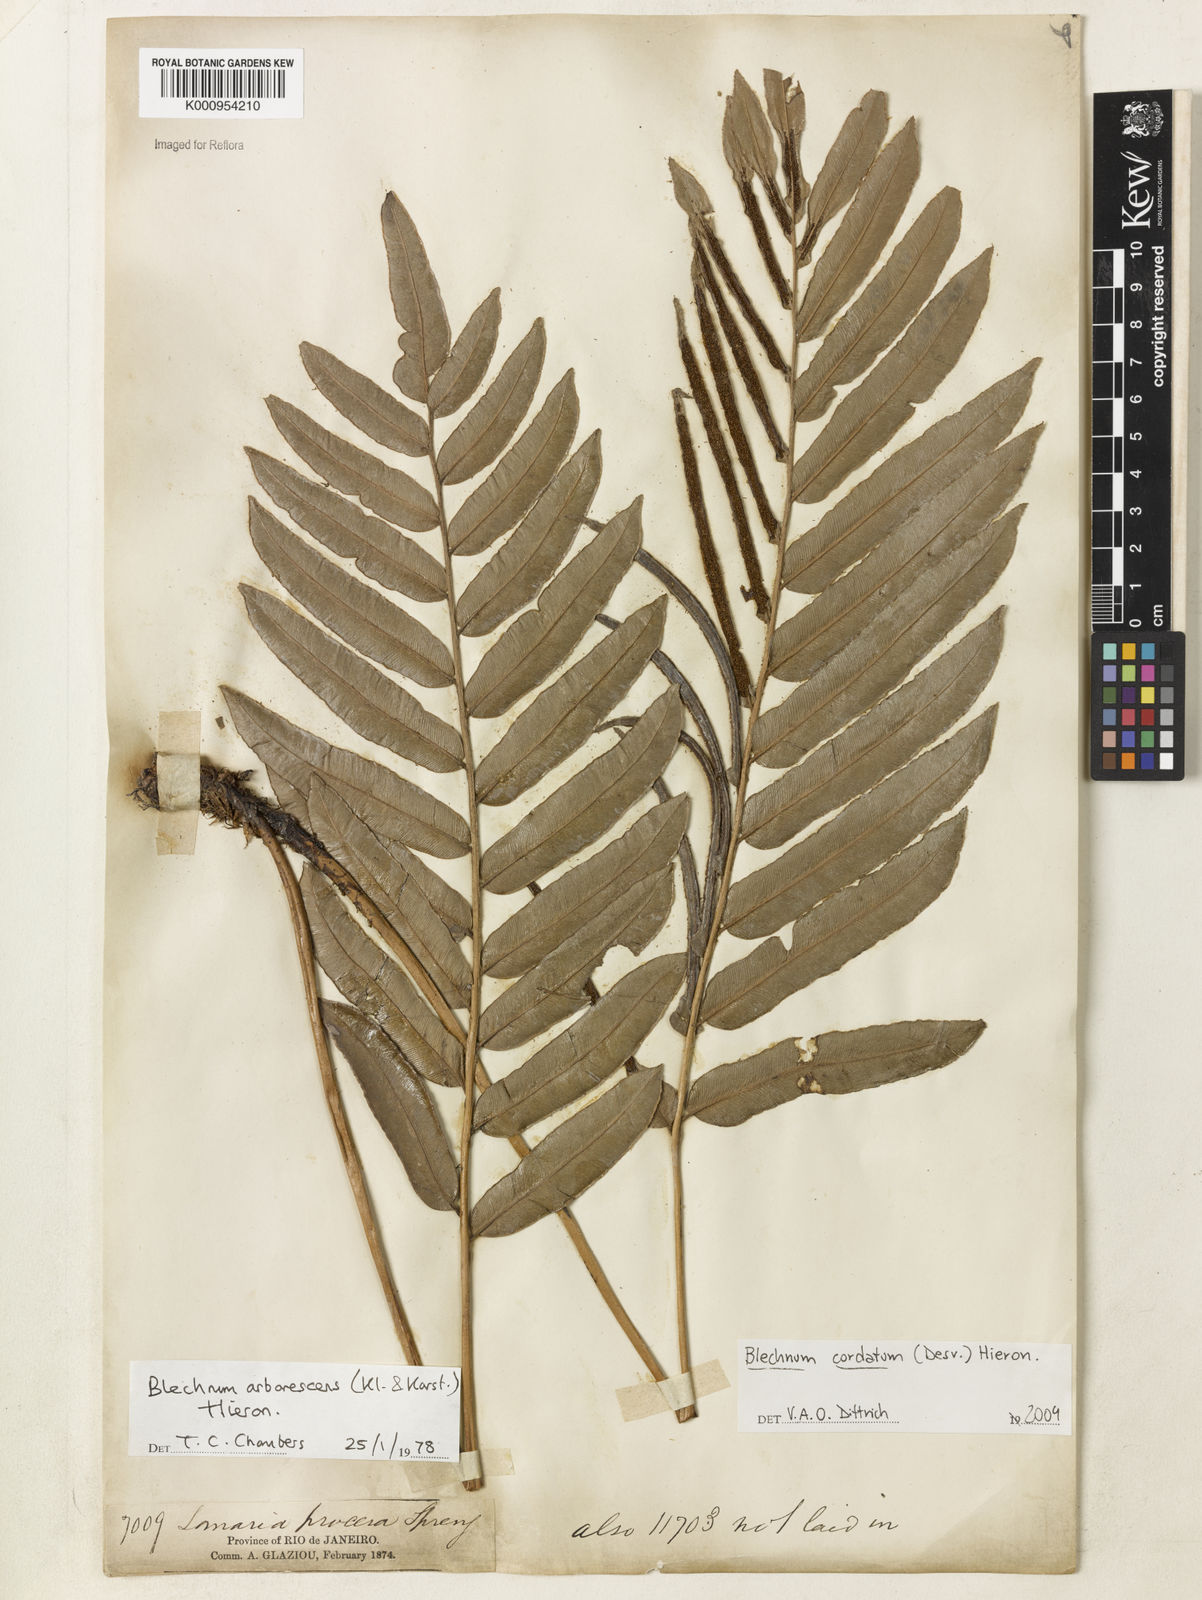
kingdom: Plantae
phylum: Tracheophyta
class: Polypodiopsida
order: Polypodiales
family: Blechnaceae
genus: Parablechnum
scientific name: Parablechnum cordatum
